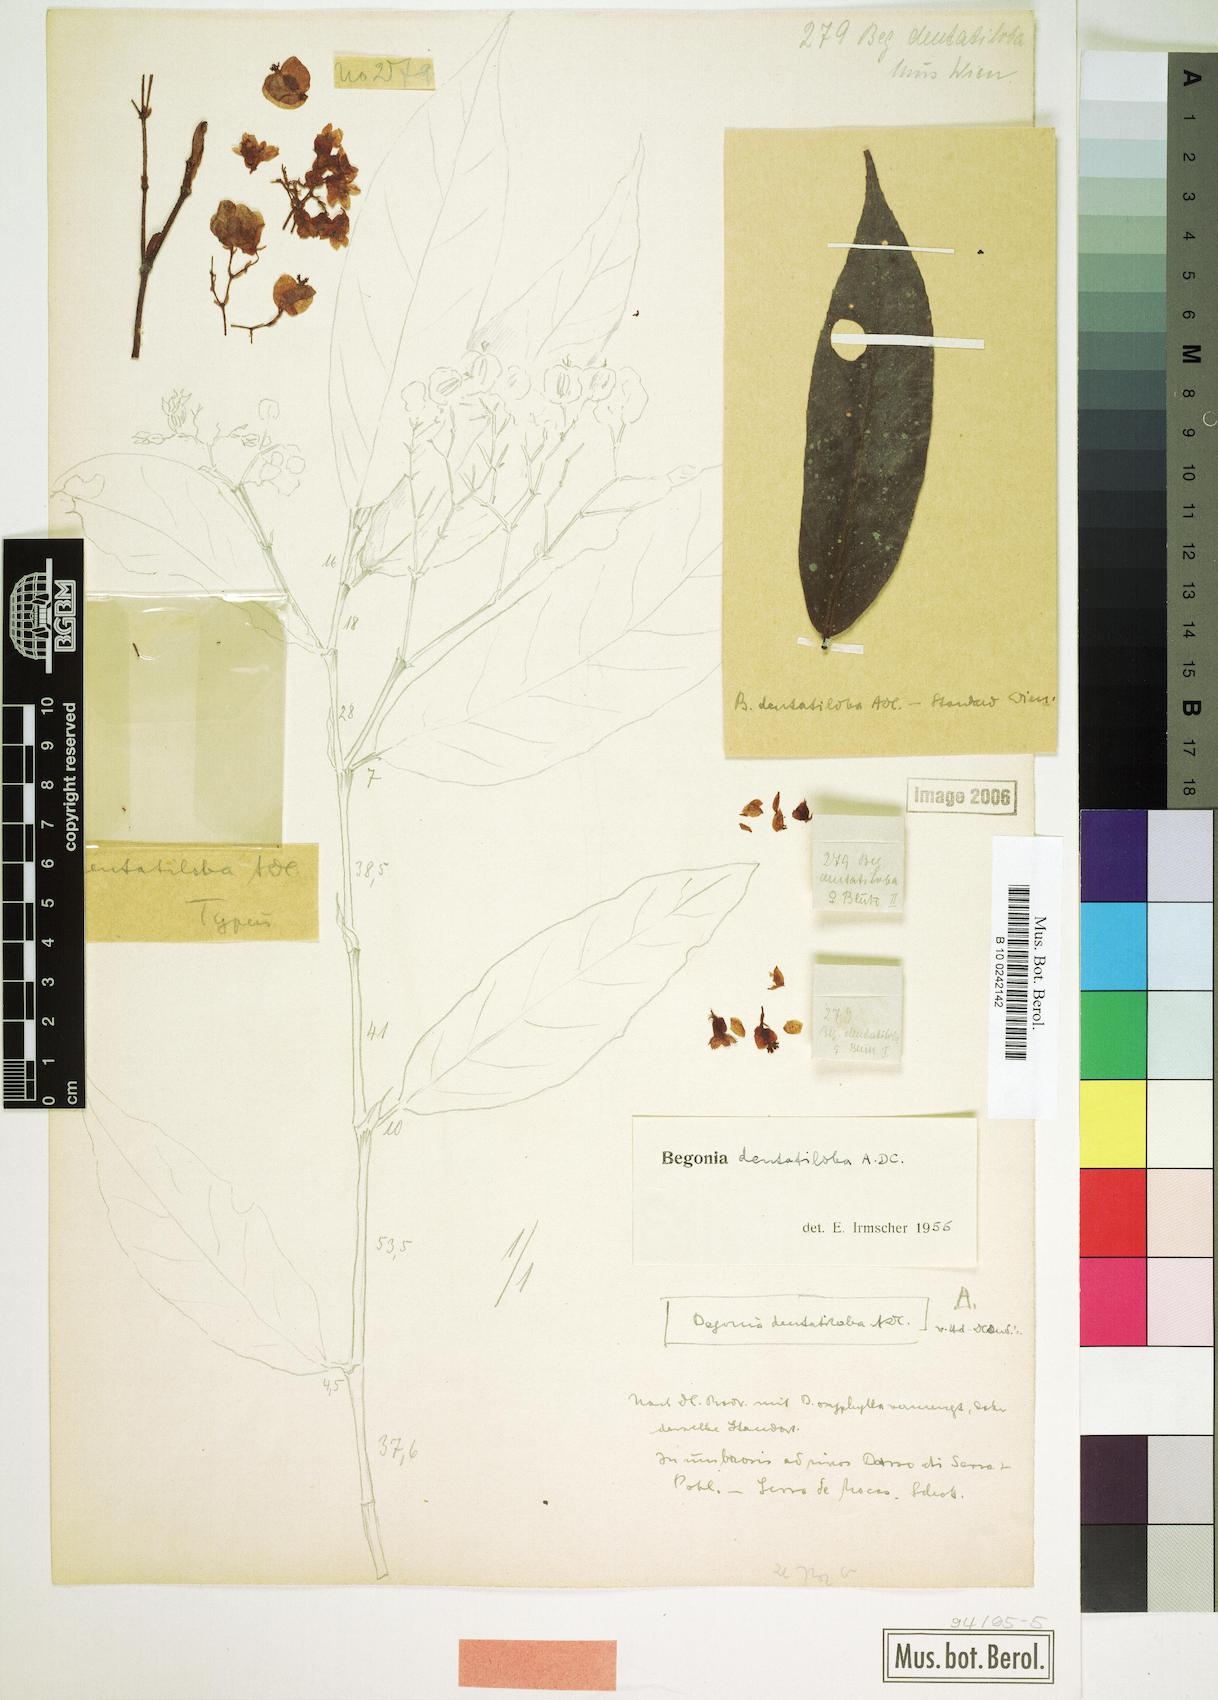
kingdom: Plantae
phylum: Tracheophyta
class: Magnoliopsida
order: Cucurbitales
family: Begoniaceae
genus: Begonia
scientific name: Begonia dentatiloba
